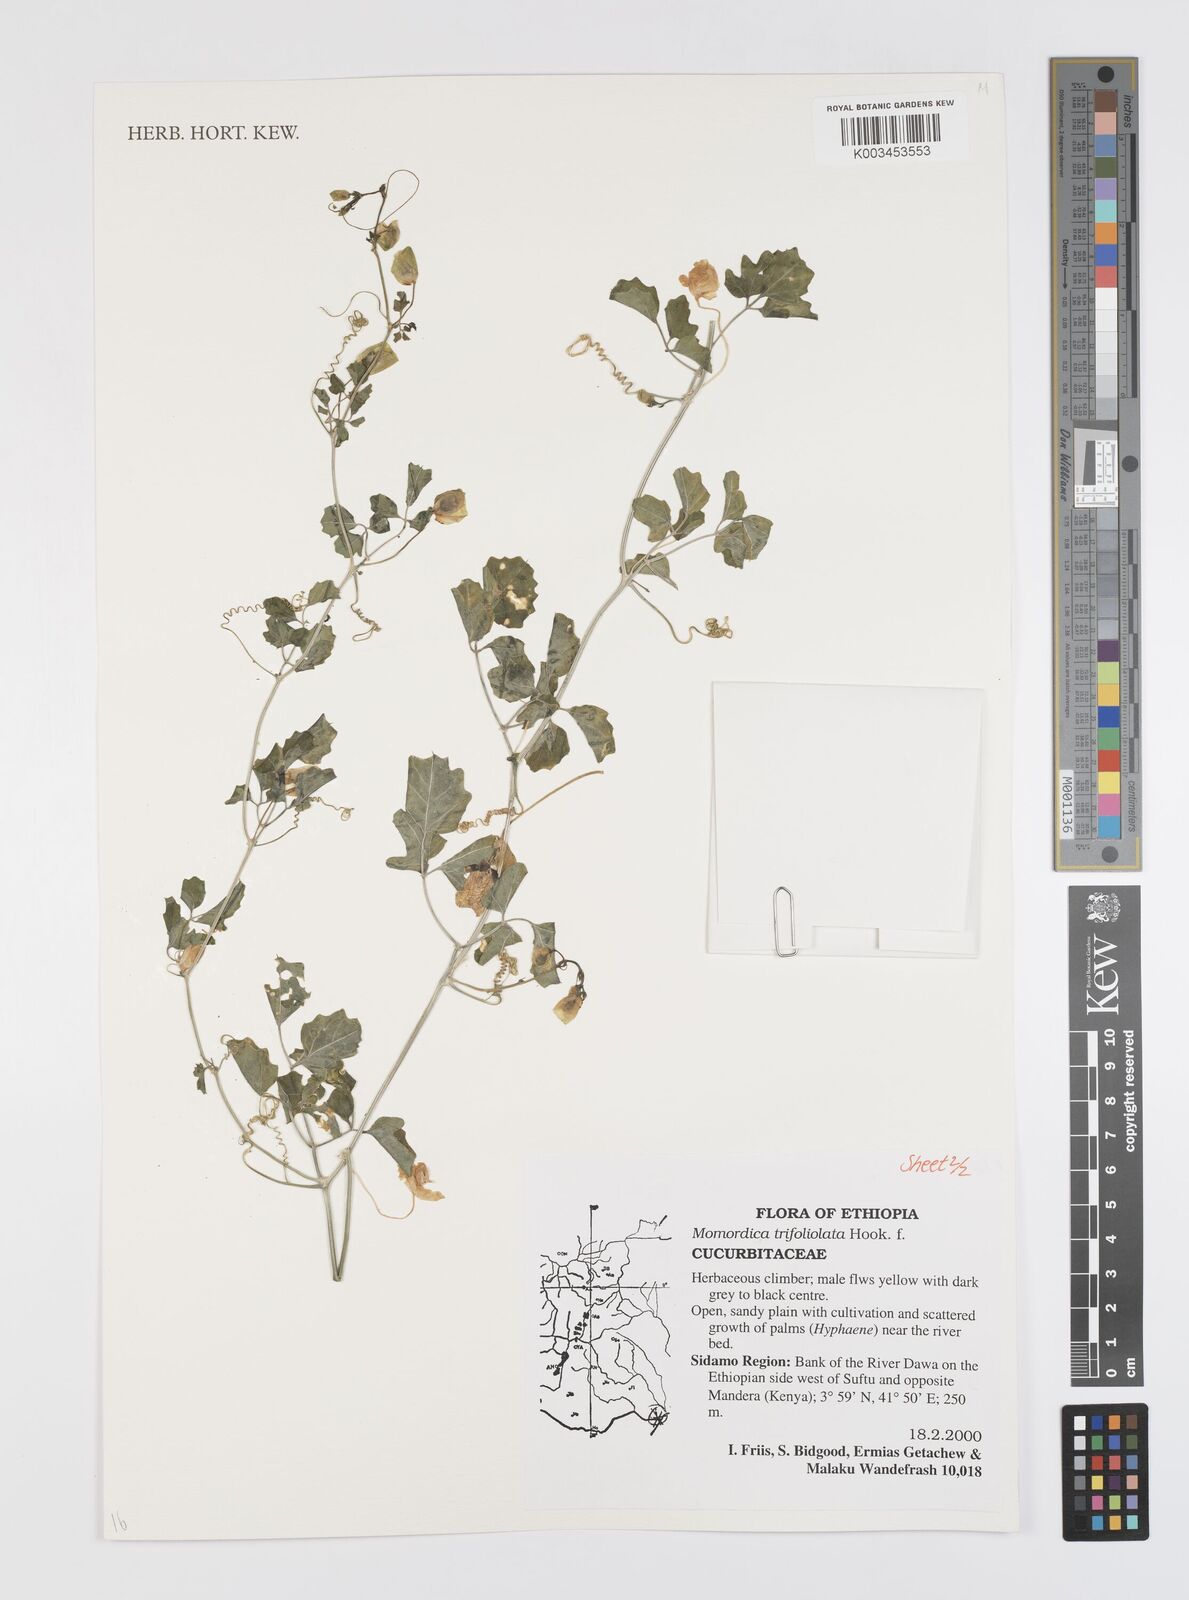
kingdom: Plantae
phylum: Tracheophyta
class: Magnoliopsida
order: Cucurbitales
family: Cucurbitaceae
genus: Momordica
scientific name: Momordica trifoliolata
